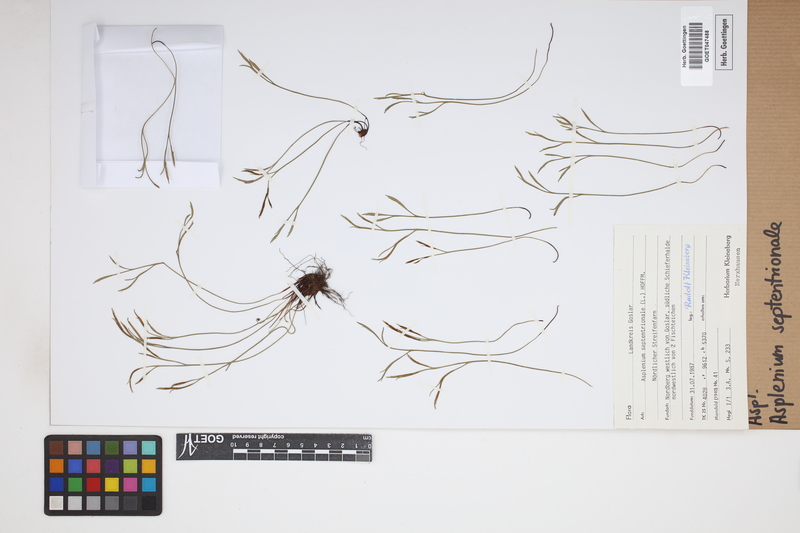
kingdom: Plantae
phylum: Tracheophyta
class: Polypodiopsida
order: Polypodiales
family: Aspleniaceae
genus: Asplenium
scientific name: Asplenium septentrionale
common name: Forked spleenwort
